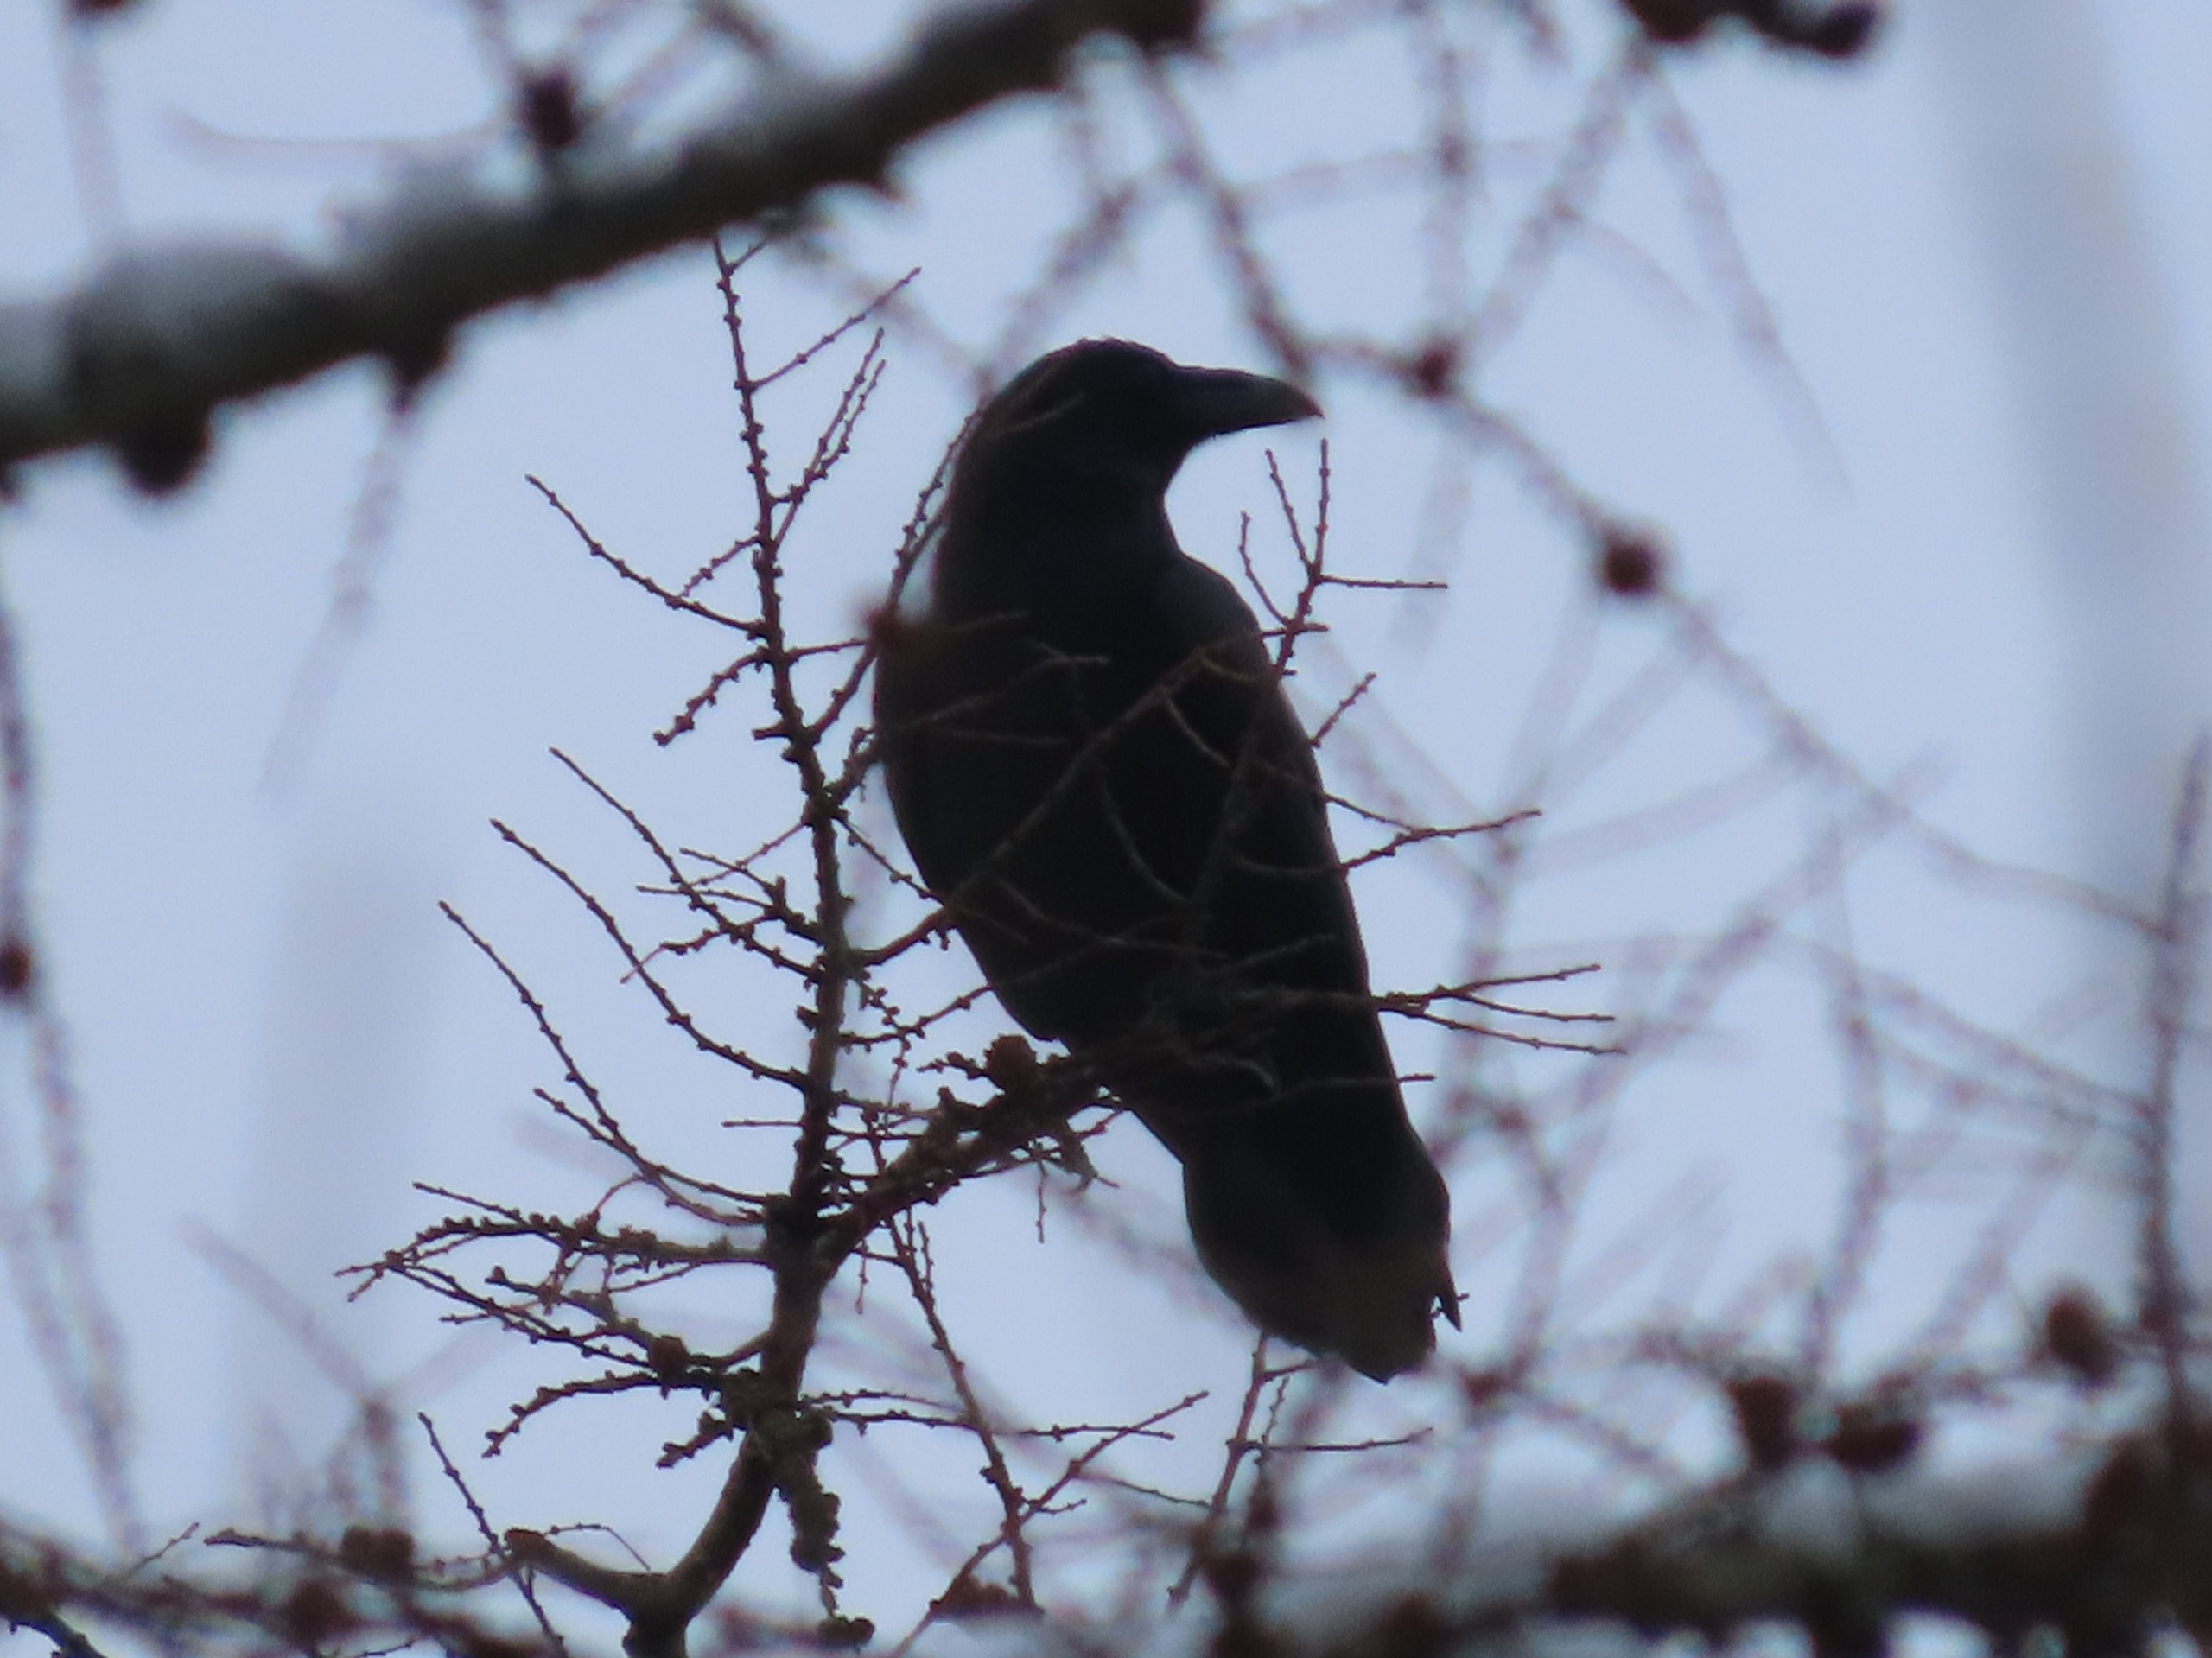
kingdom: Animalia
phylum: Chordata
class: Aves
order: Passeriformes
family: Corvidae
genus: Corvus
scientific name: Corvus corax
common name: Ravn
